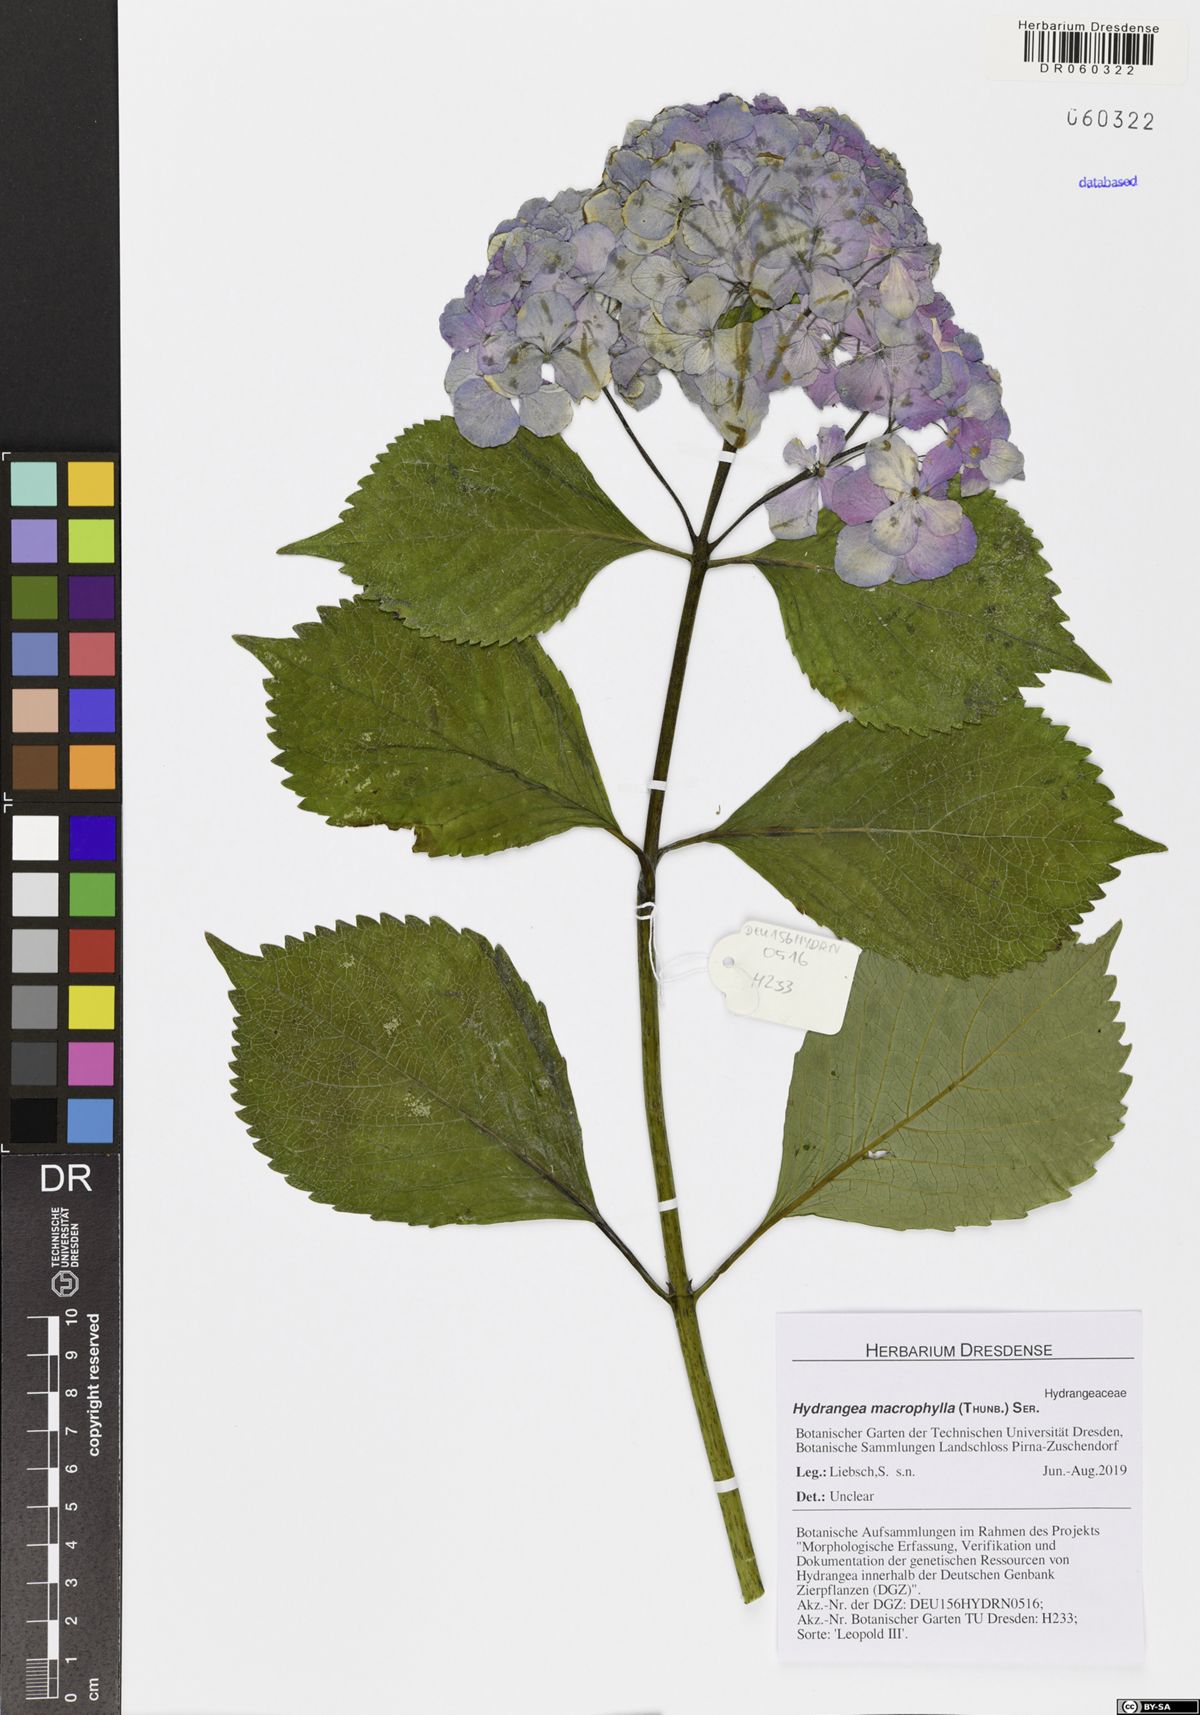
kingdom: Plantae
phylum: Tracheophyta
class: Magnoliopsida
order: Cornales
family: Hydrangeaceae
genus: Hydrangea
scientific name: Hydrangea macrophylla
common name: Hydrangea
